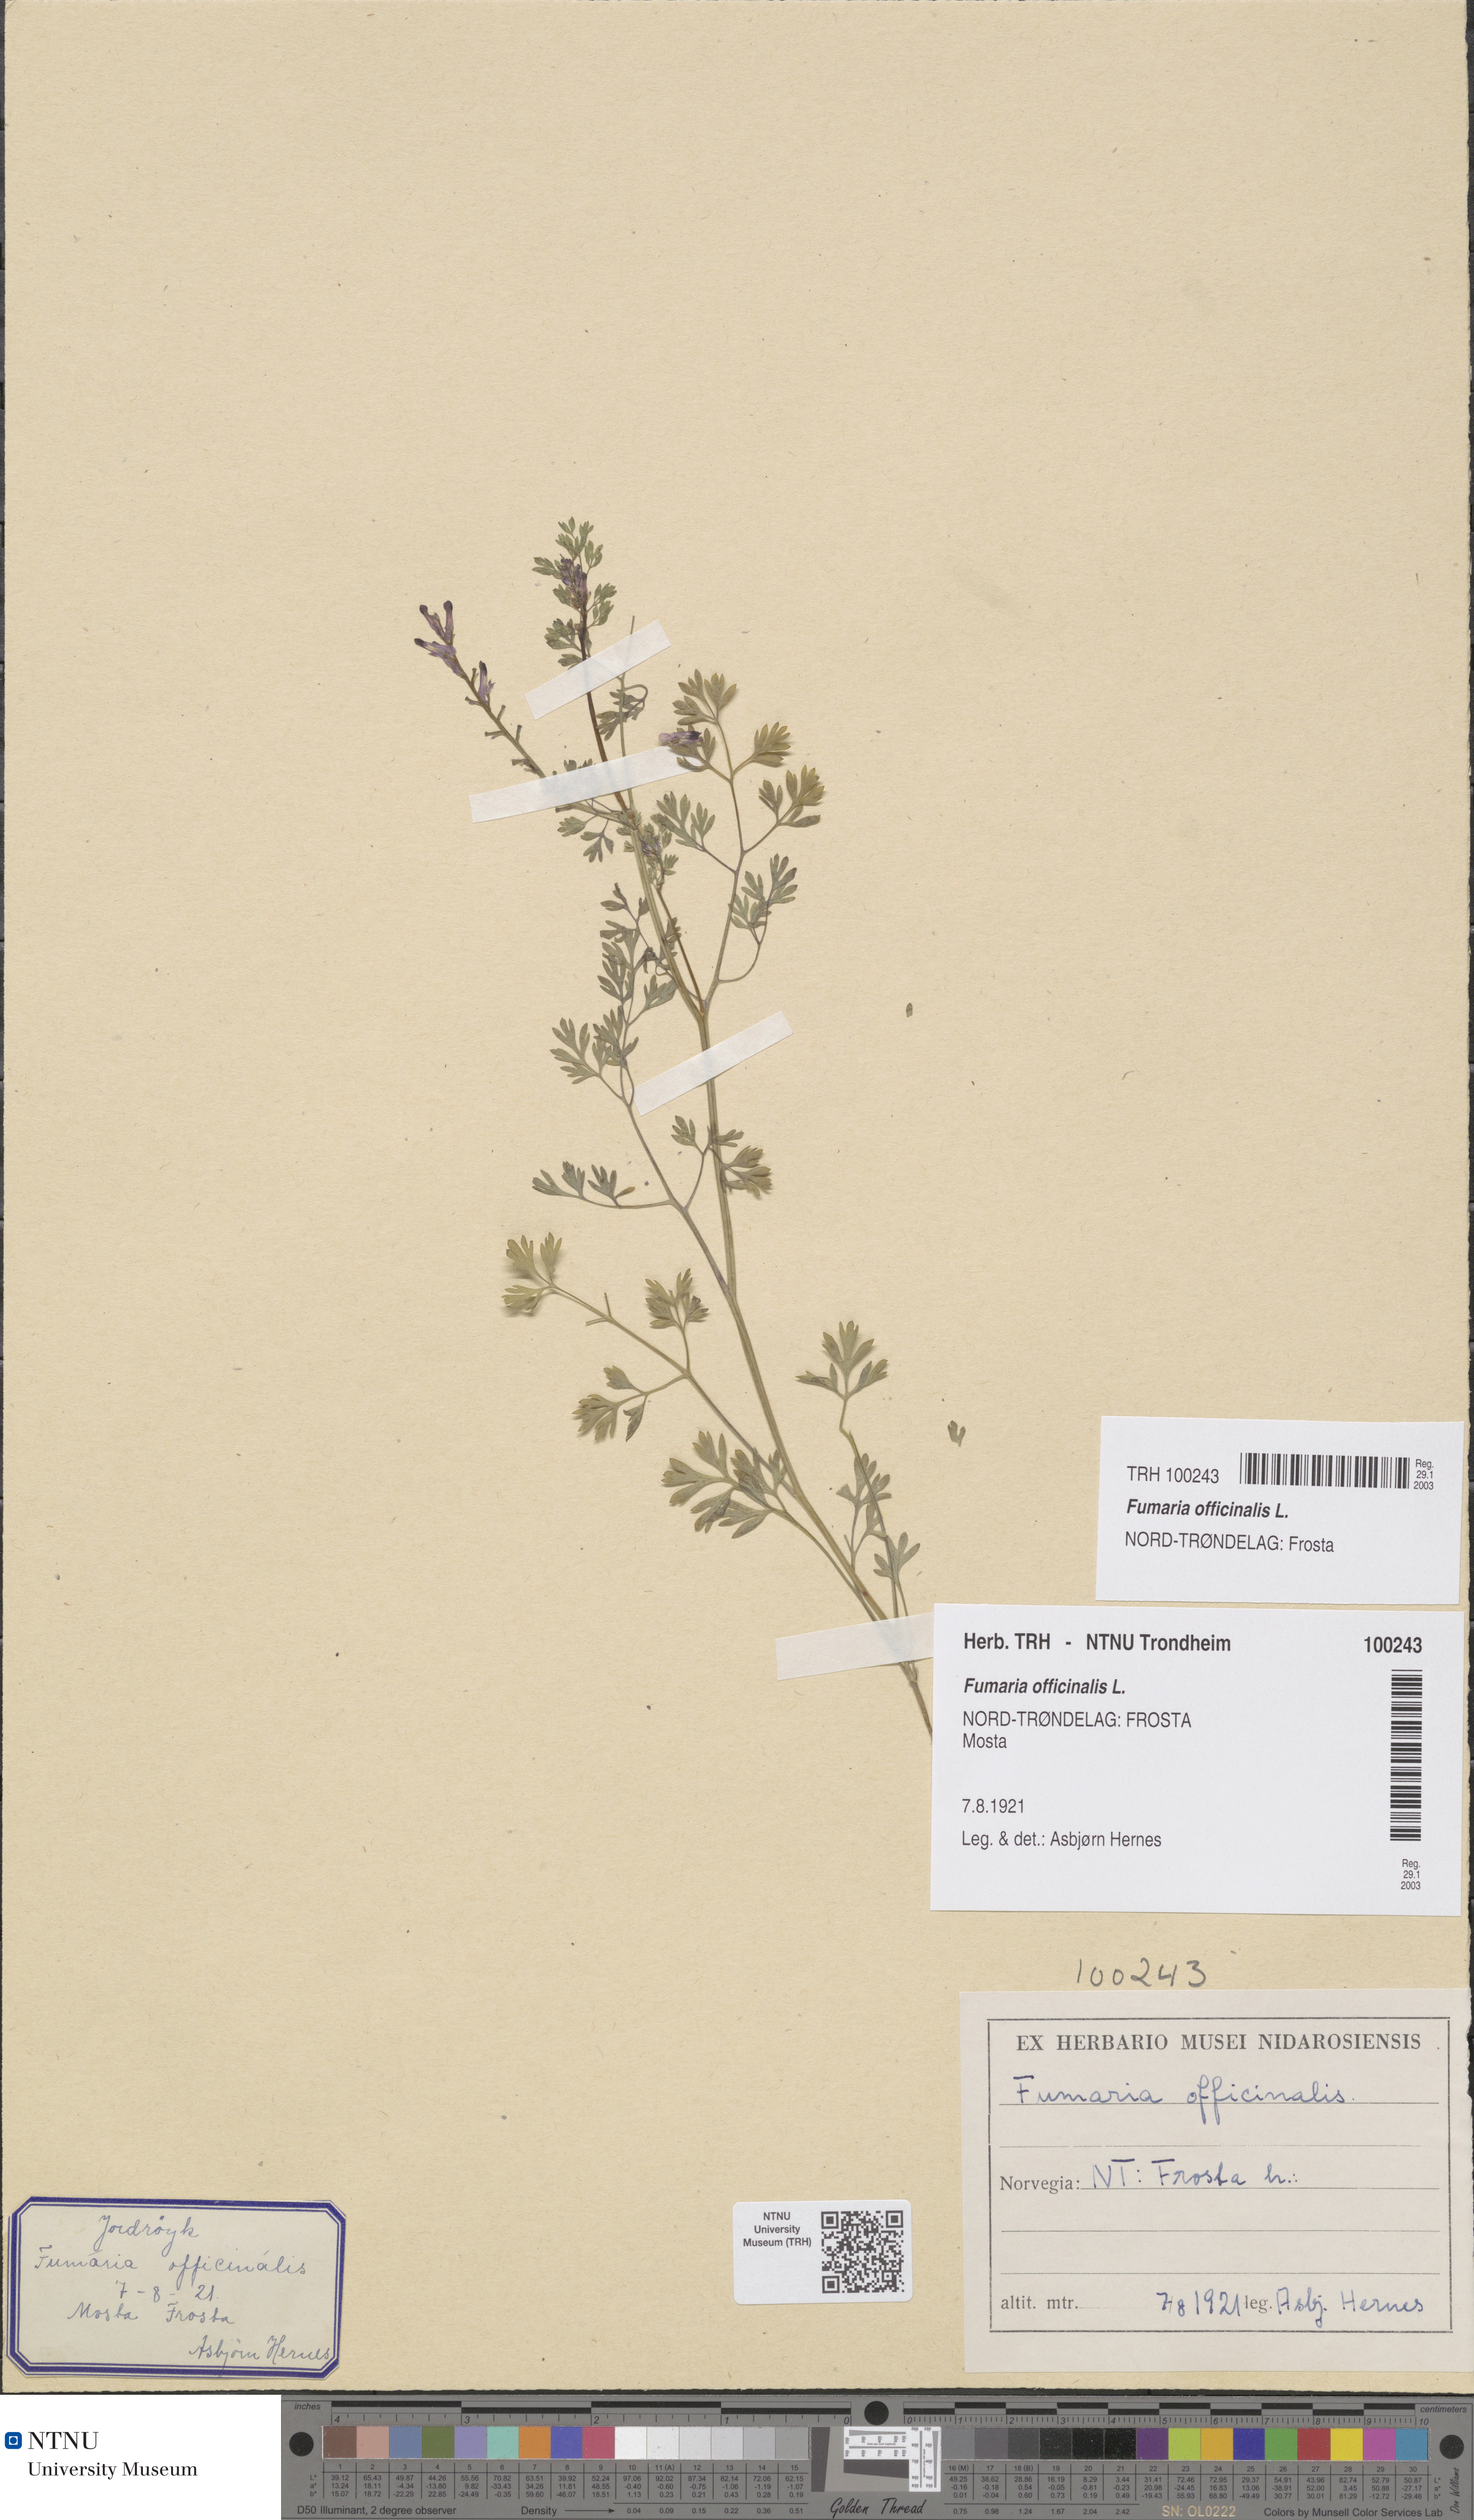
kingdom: Plantae
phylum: Tracheophyta
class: Magnoliopsida
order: Ranunculales
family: Papaveraceae
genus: Fumaria
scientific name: Fumaria officinalis
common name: Common fumitory
